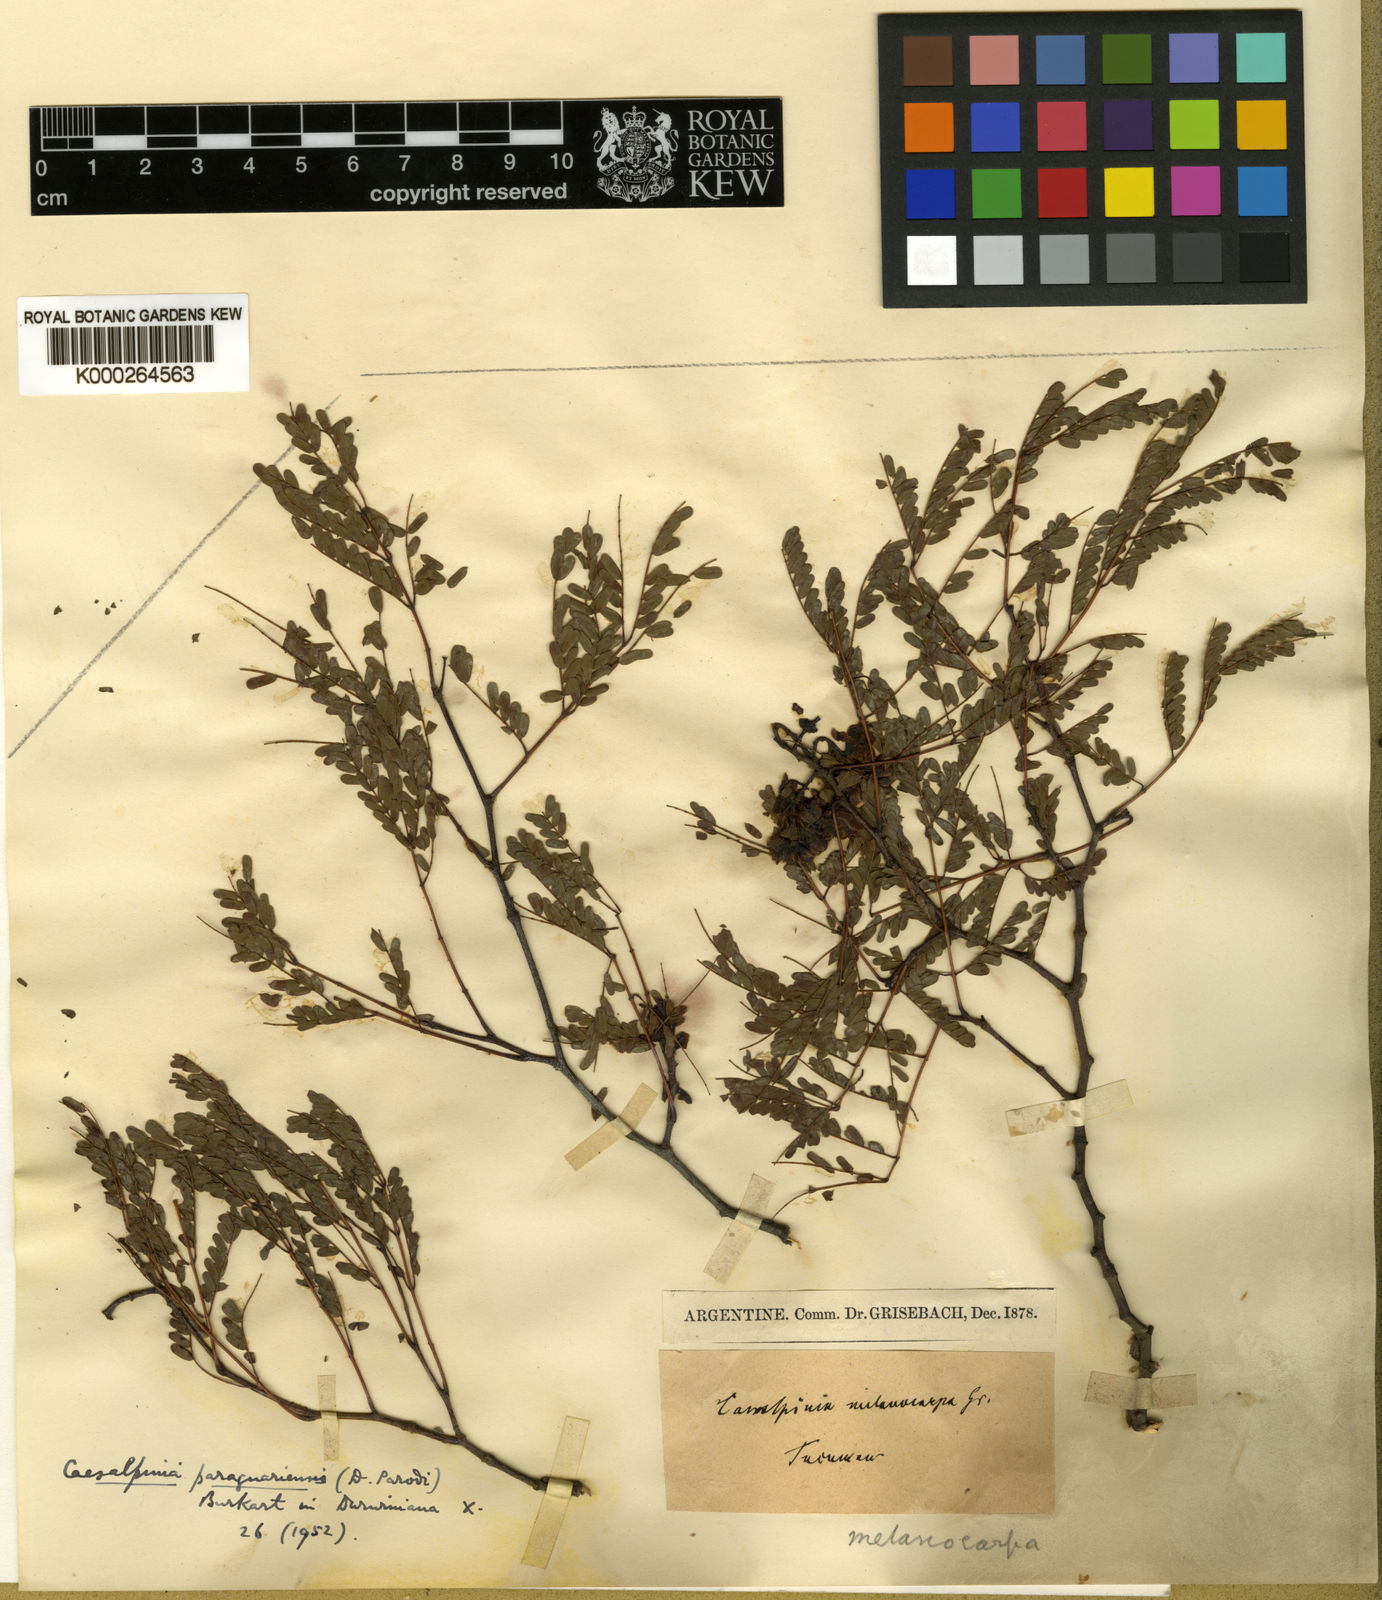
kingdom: Plantae
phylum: Tracheophyta
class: Magnoliopsida
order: Fabales
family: Fabaceae
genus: Libidibia
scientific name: Libidibia paraguariensis
